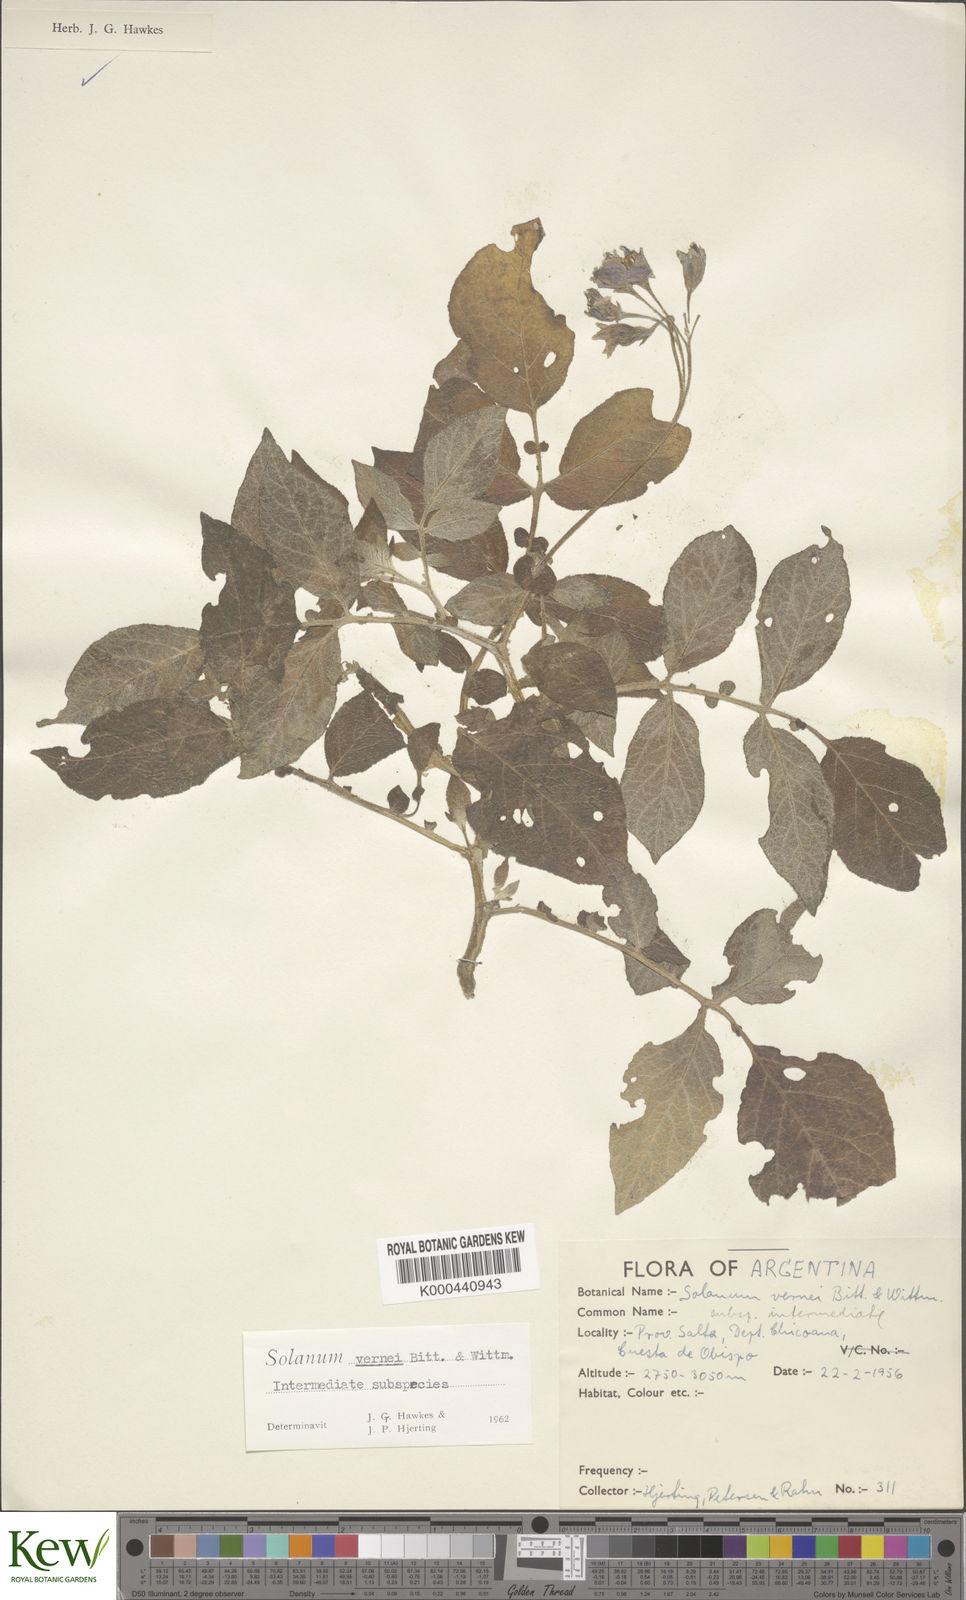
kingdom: Plantae
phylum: Tracheophyta
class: Magnoliopsida
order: Solanales
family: Solanaceae
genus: Solanum
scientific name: Solanum vernei
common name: Purple potato
